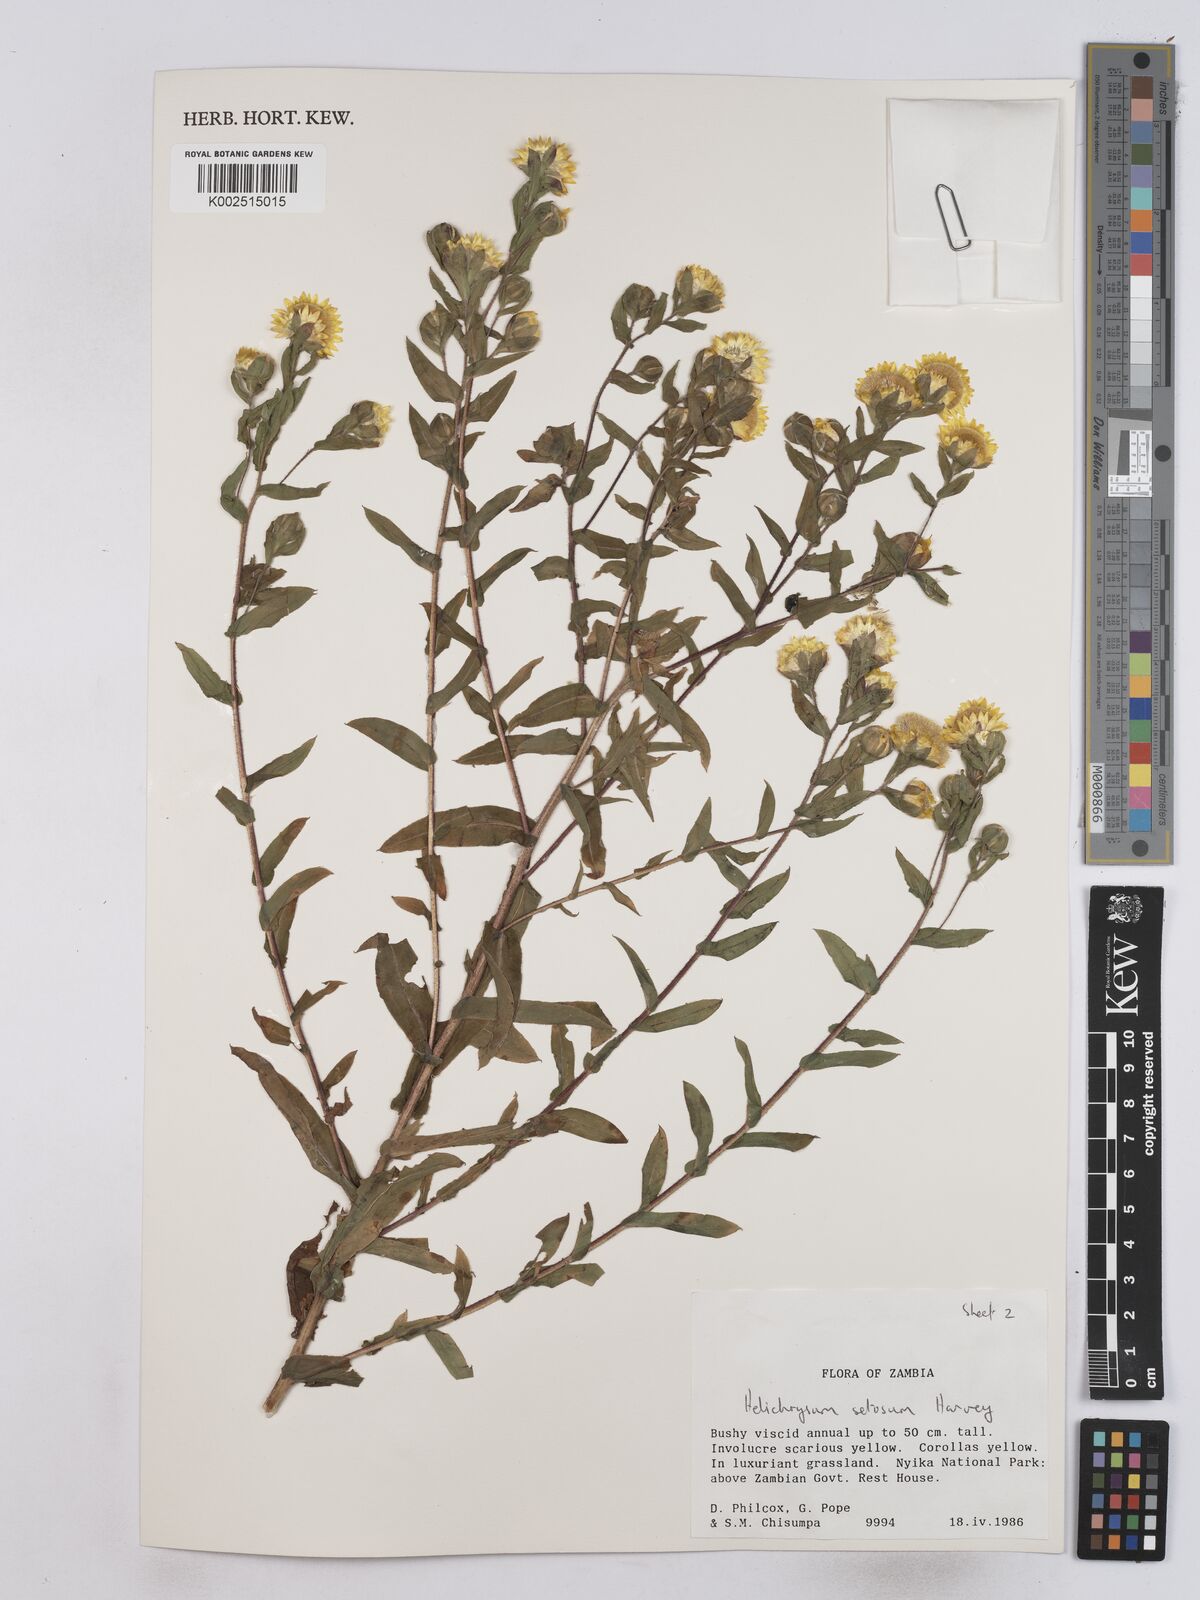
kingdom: Plantae
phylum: Tracheophyta
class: Magnoliopsida
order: Asterales
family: Asteraceae
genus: Helichrysum
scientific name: Helichrysum setosum
